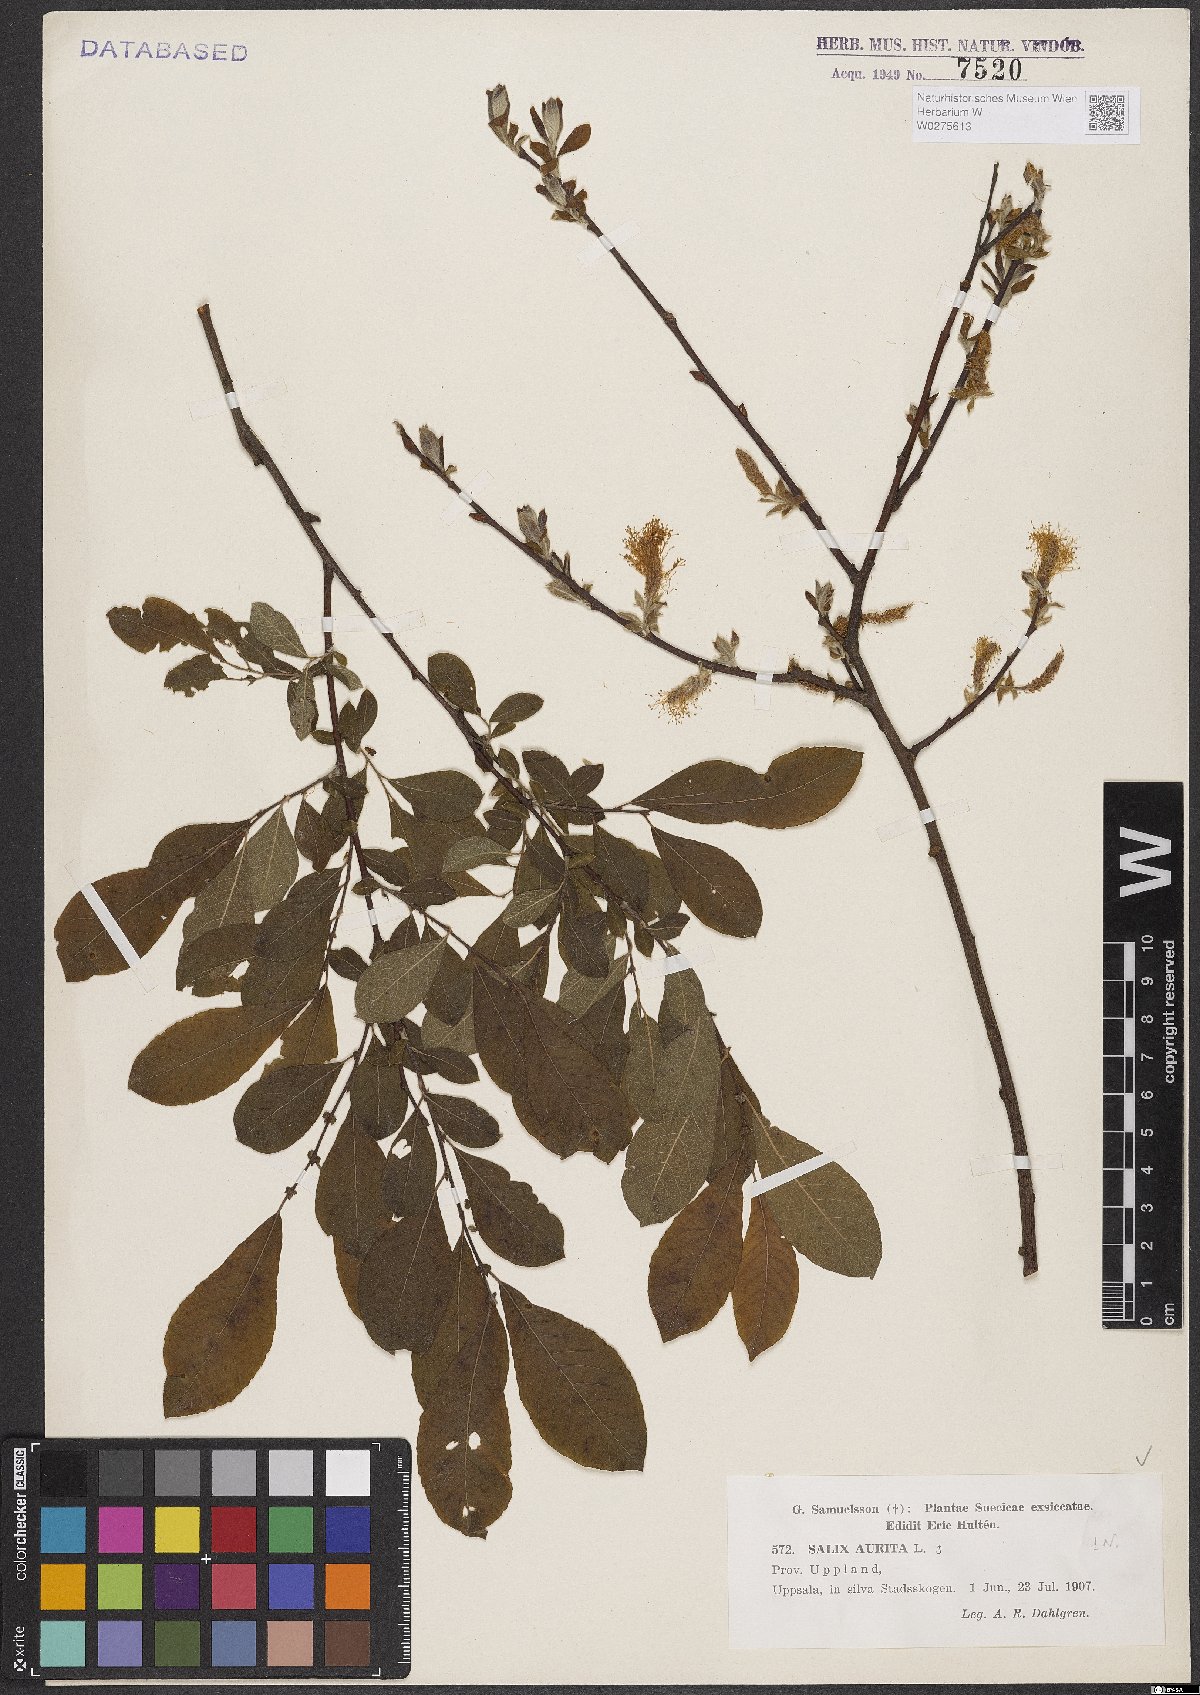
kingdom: Plantae
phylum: Tracheophyta
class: Magnoliopsida
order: Malpighiales
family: Salicaceae
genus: Salix
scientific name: Salix aurita
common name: Eared willow
